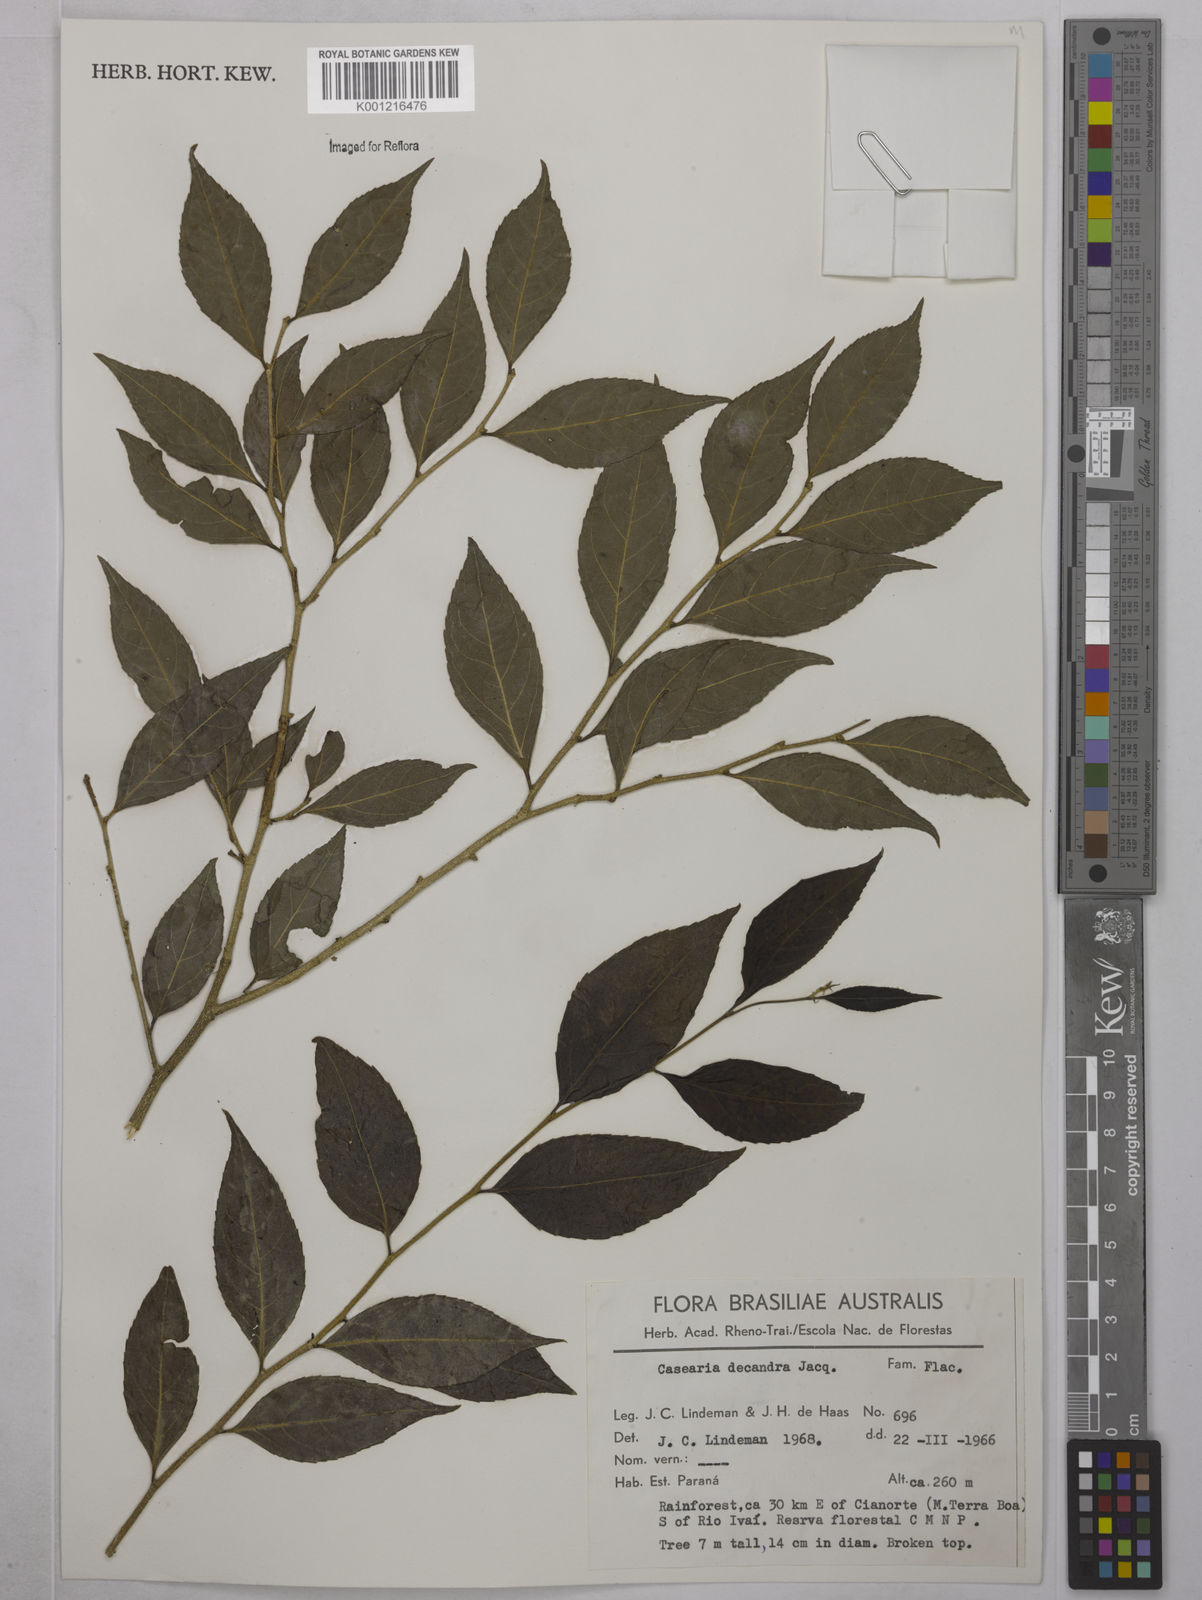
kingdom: Plantae
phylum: Tracheophyta
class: Magnoliopsida
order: Malpighiales
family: Salicaceae
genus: Casearia
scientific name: Casearia decandra
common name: Crack open
